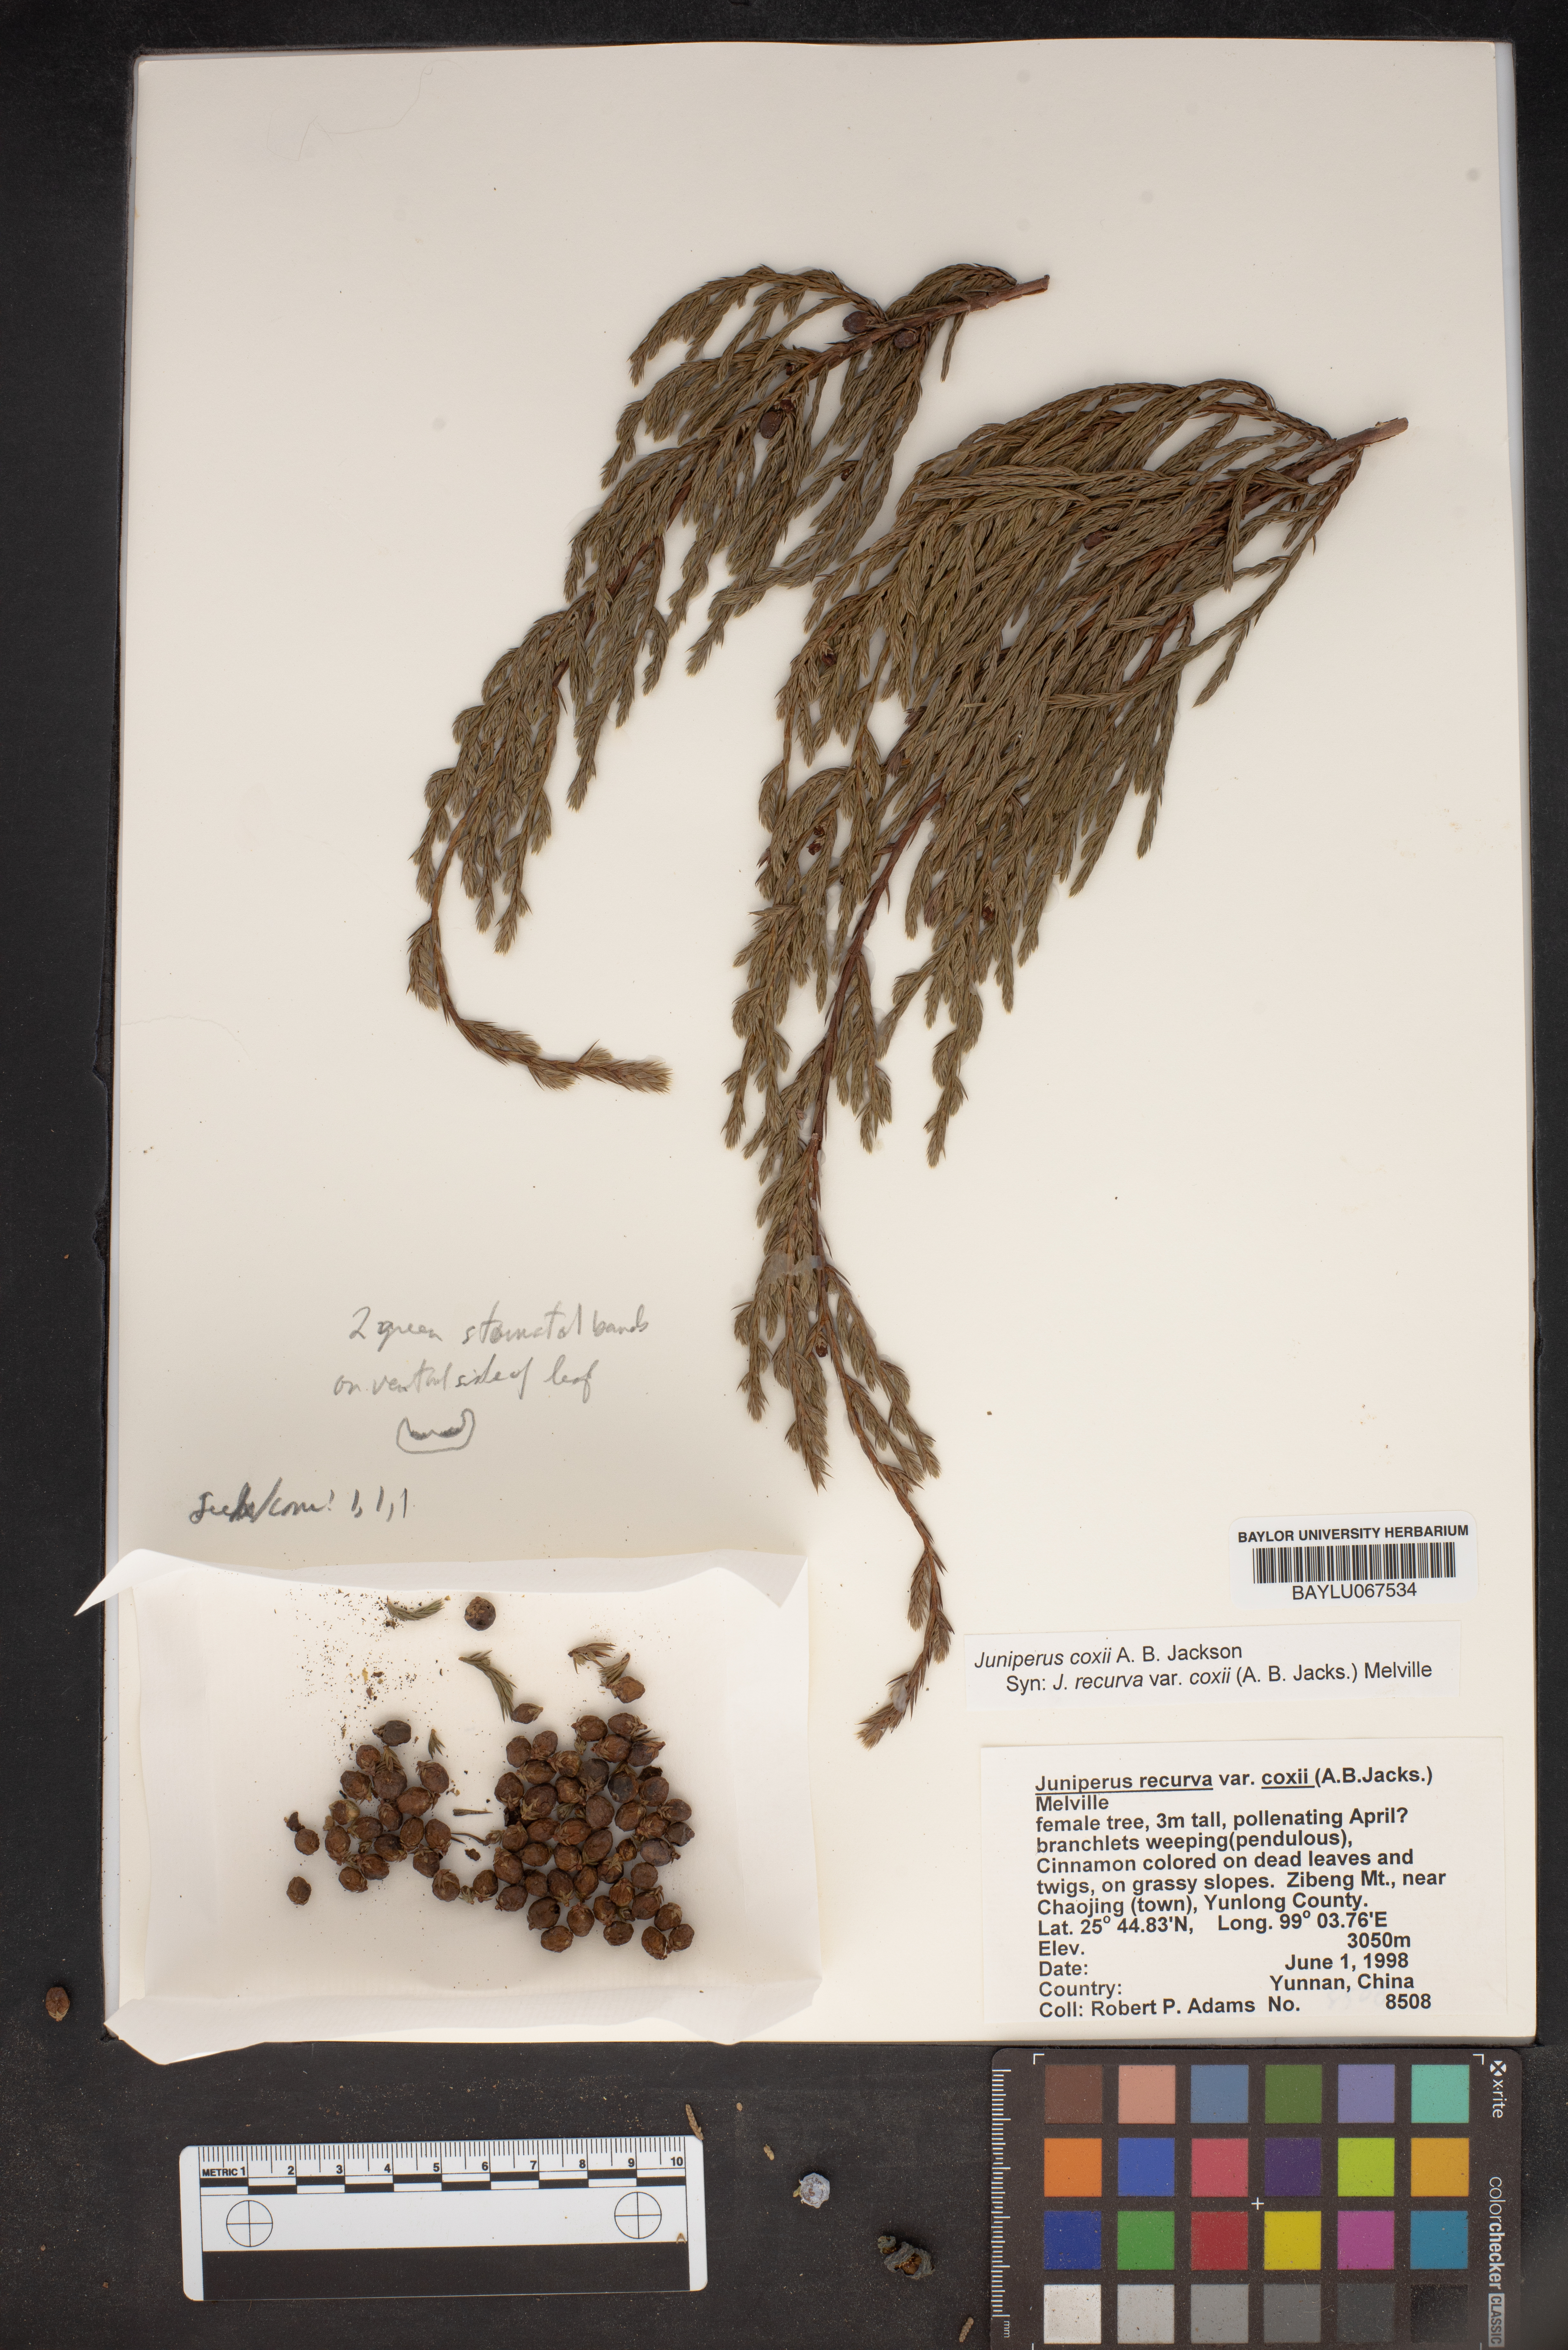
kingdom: Plantae
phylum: Tracheophyta
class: Pinopsida
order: Pinales
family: Cupressaceae
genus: Juniperus
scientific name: Juniperus recurva
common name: Drooping juniper
